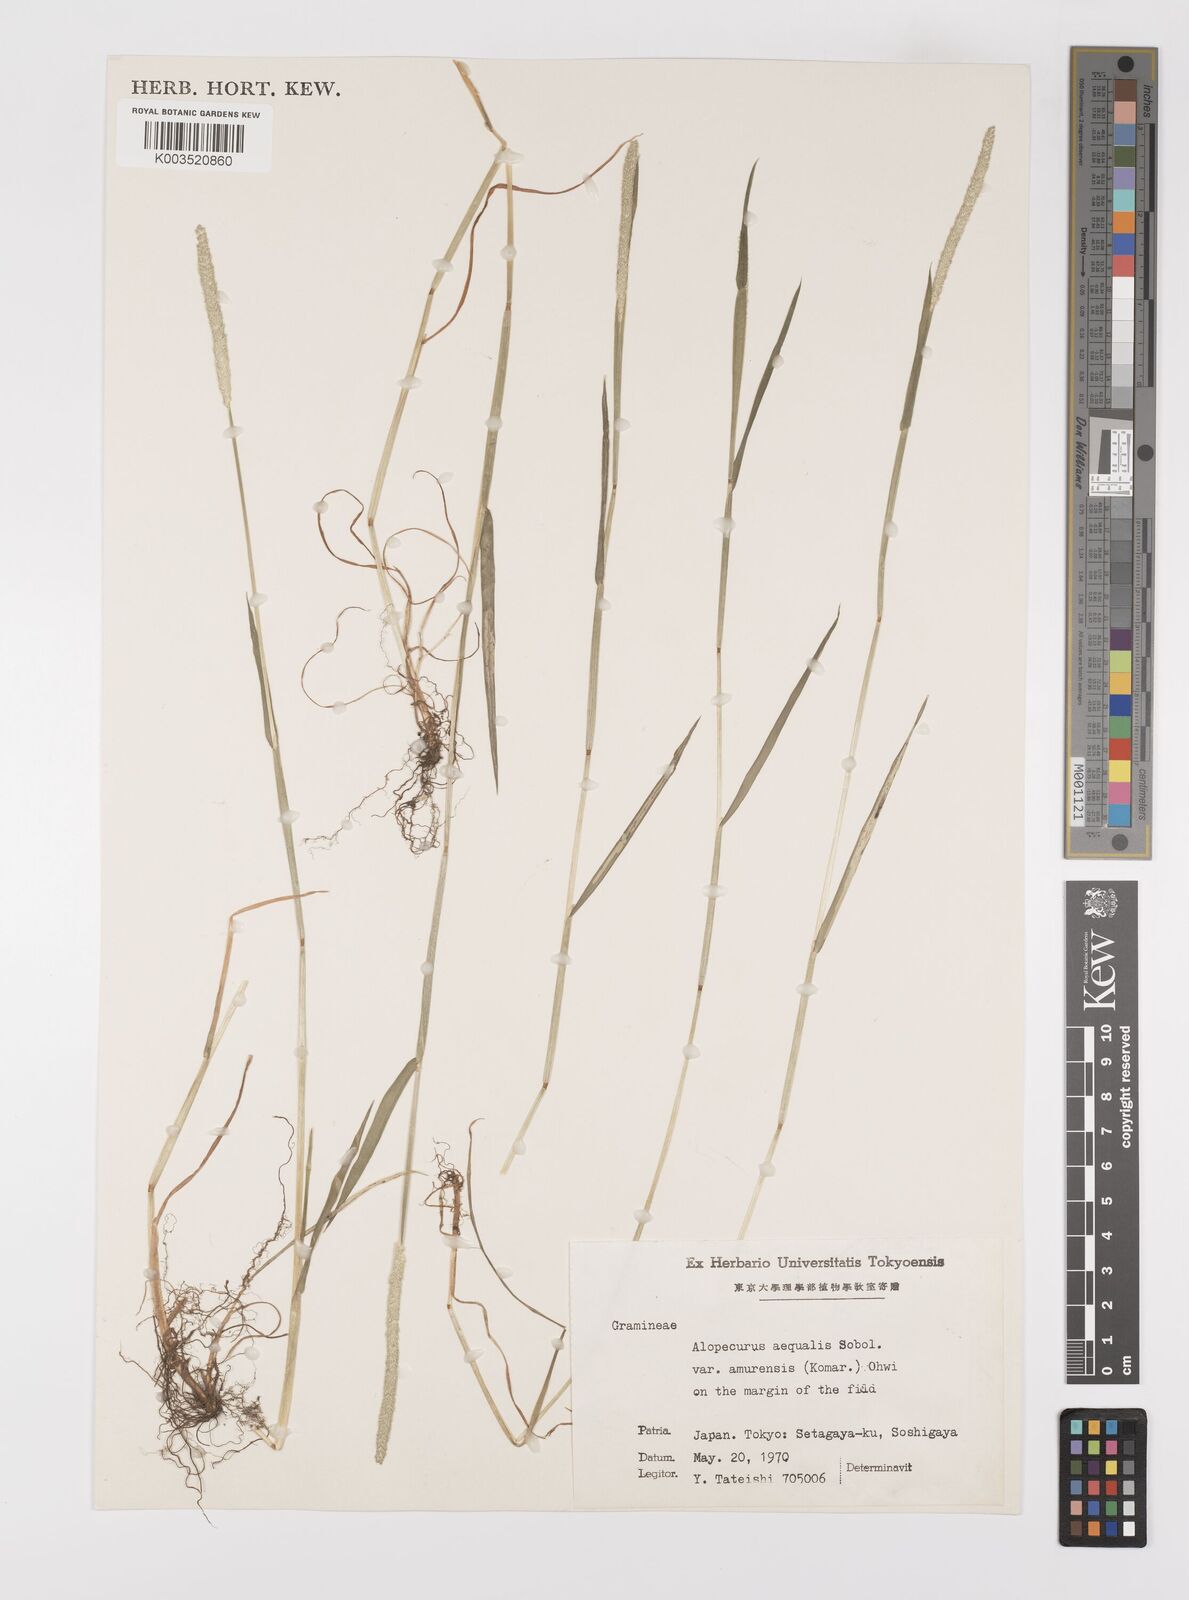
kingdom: Plantae
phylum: Tracheophyta
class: Liliopsida
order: Poales
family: Poaceae
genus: Alopecurus
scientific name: Alopecurus aequalis
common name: Orange foxtail
